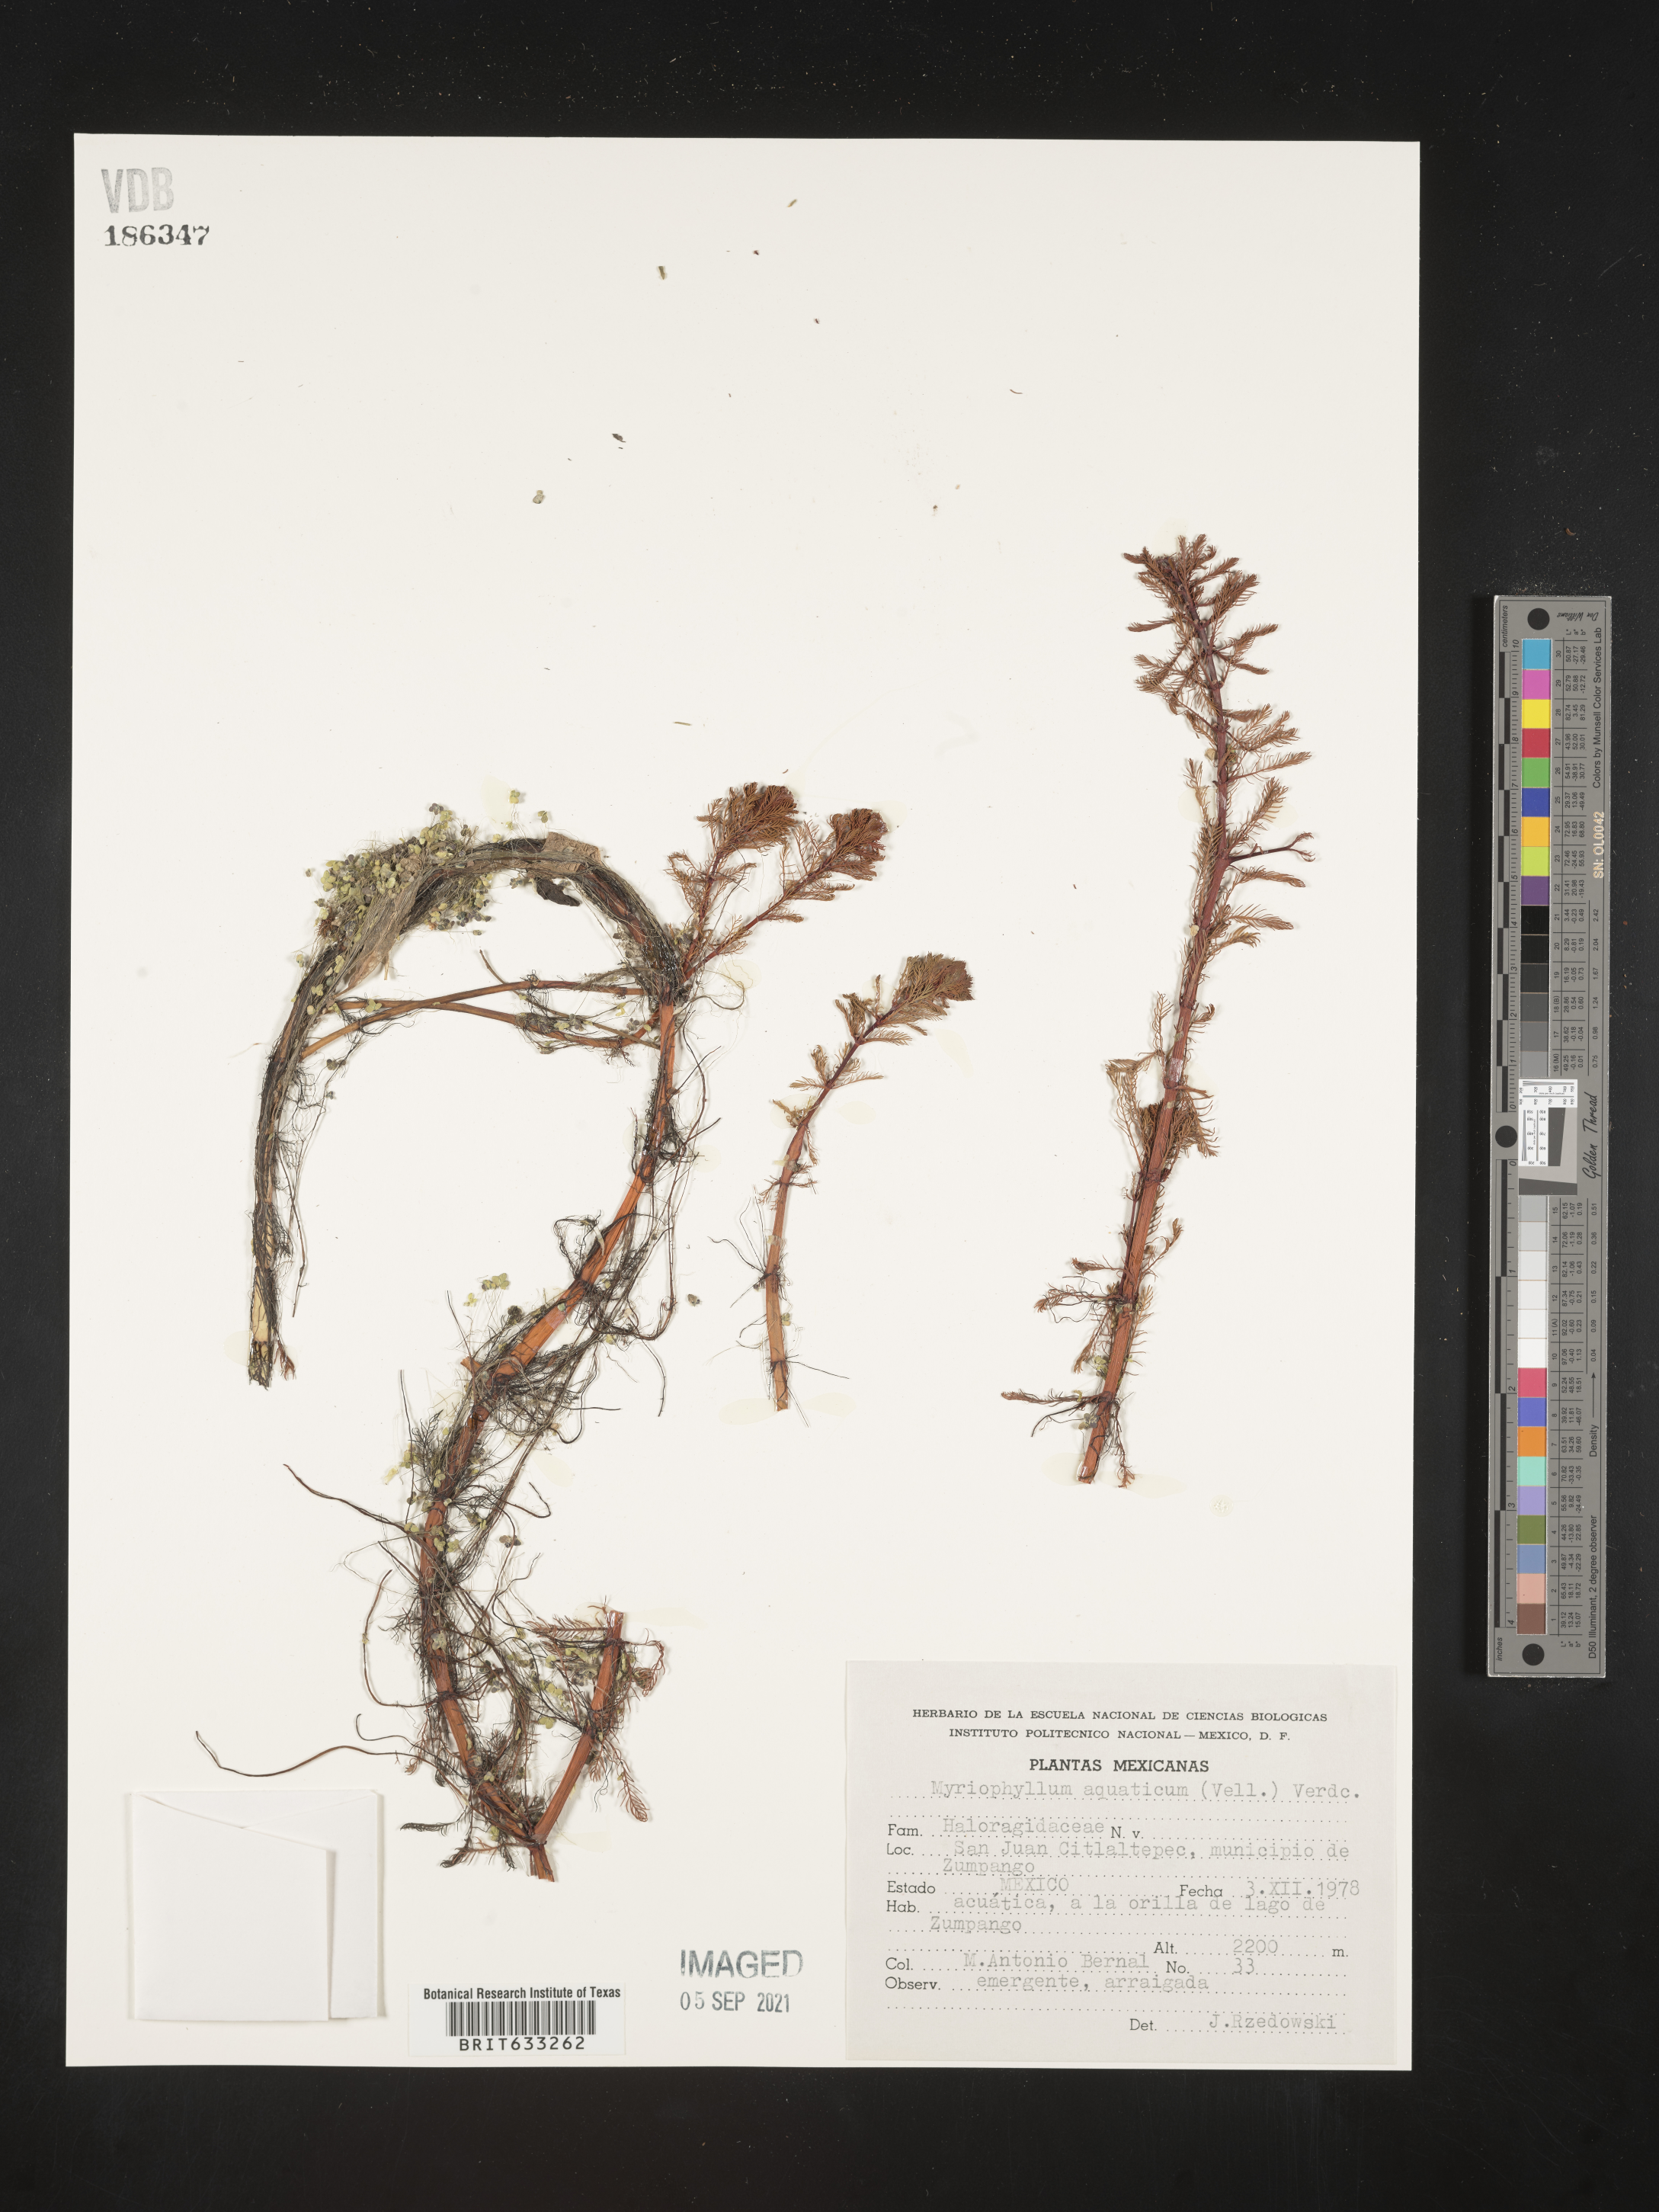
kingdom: Plantae
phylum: Tracheophyta
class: Magnoliopsida
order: Saxifragales
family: Haloragaceae
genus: Myriophyllum
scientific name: Myriophyllum
